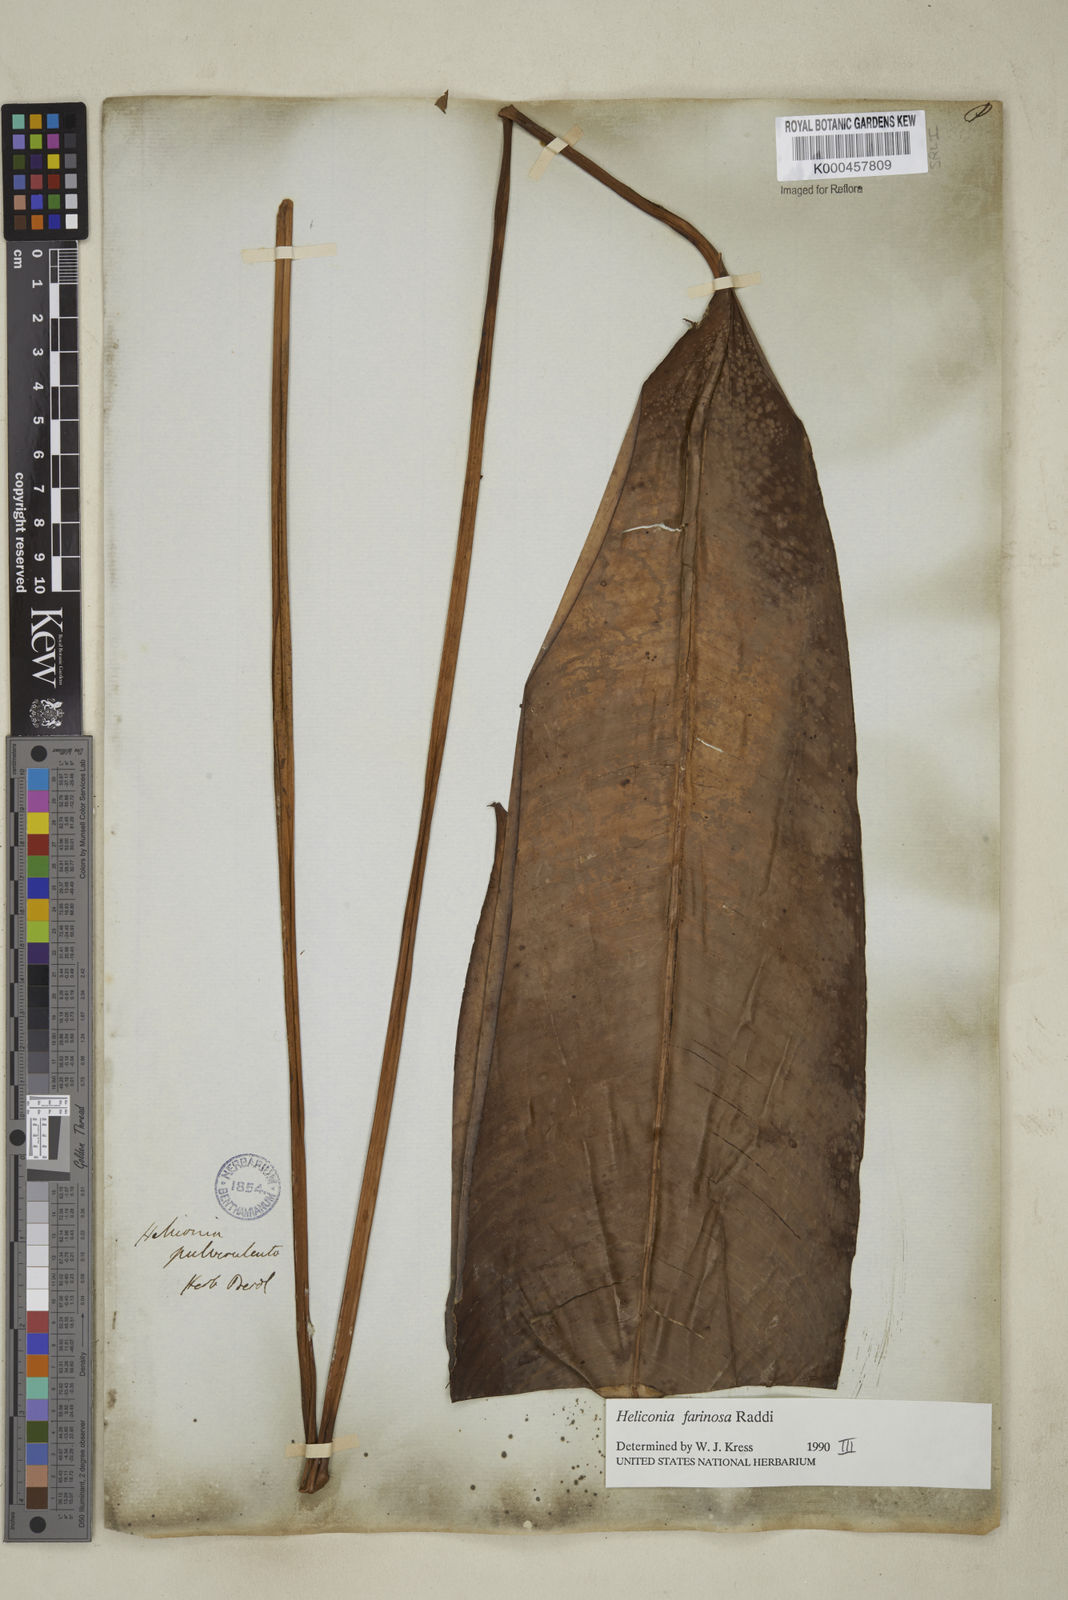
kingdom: Plantae
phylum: Tracheophyta
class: Liliopsida
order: Zingiberales
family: Heliconiaceae
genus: Heliconia
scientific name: Heliconia farinosa
